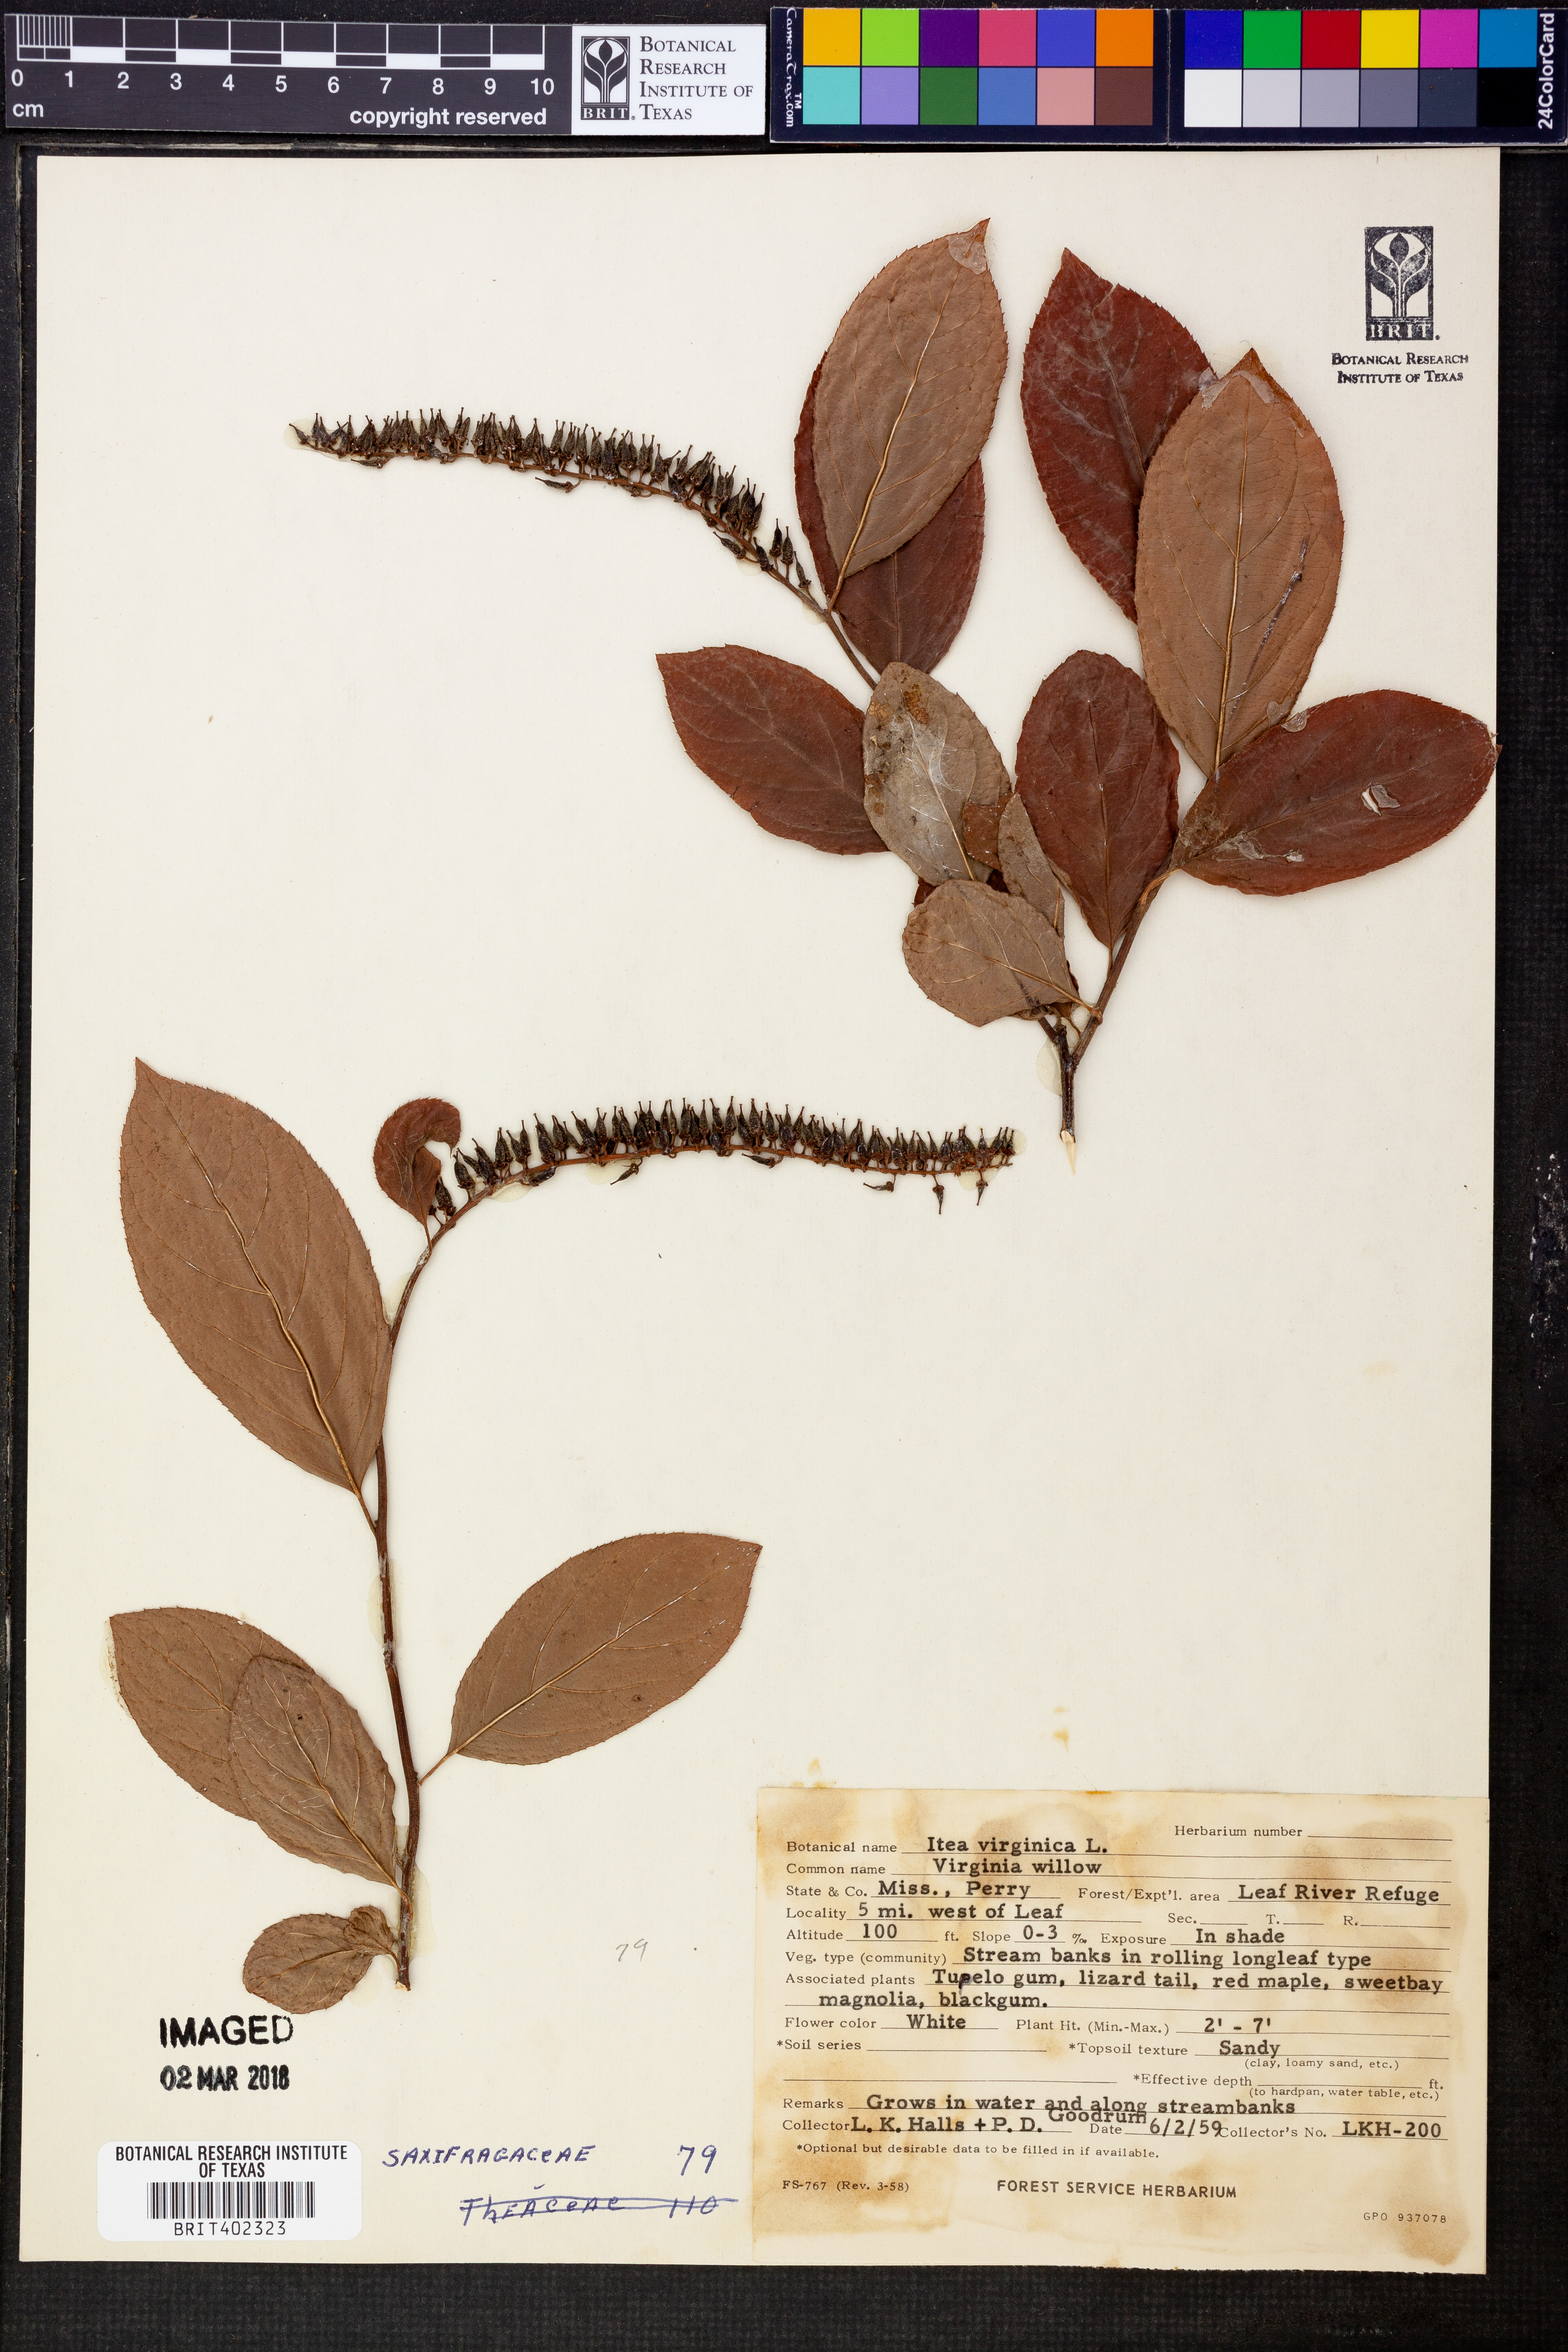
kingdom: Plantae
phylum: Tracheophyta
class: Magnoliopsida
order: Saxifragales
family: Iteaceae
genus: Itea
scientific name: Itea virginica
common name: Sweetspire
